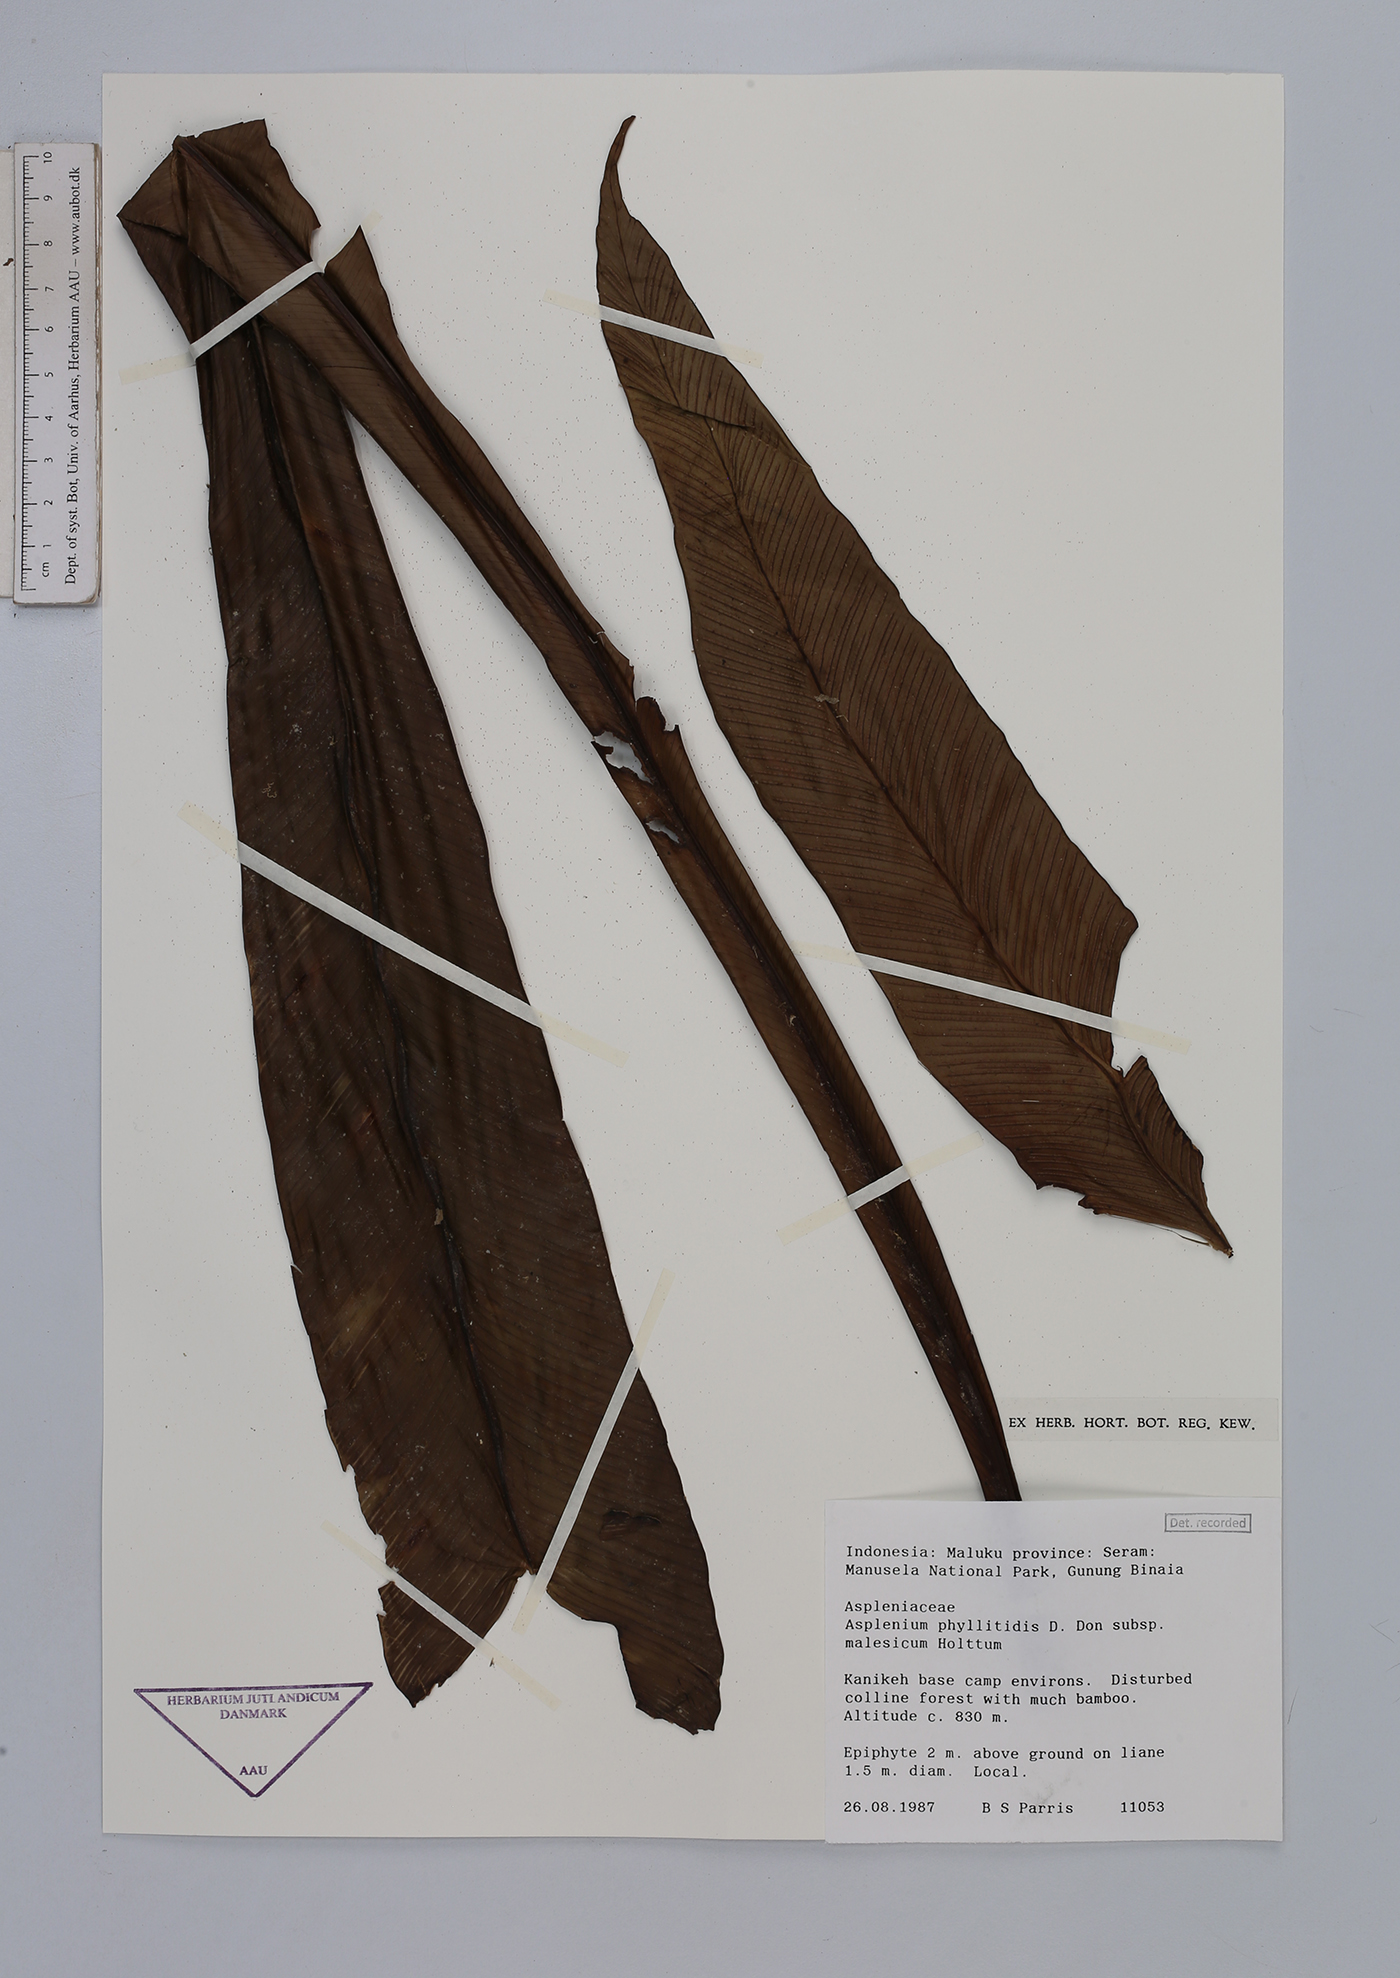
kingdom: Plantae
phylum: Tracheophyta
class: Polypodiopsida
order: Polypodiales
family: Aspleniaceae
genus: Asplenium
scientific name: Asplenium anguineum
